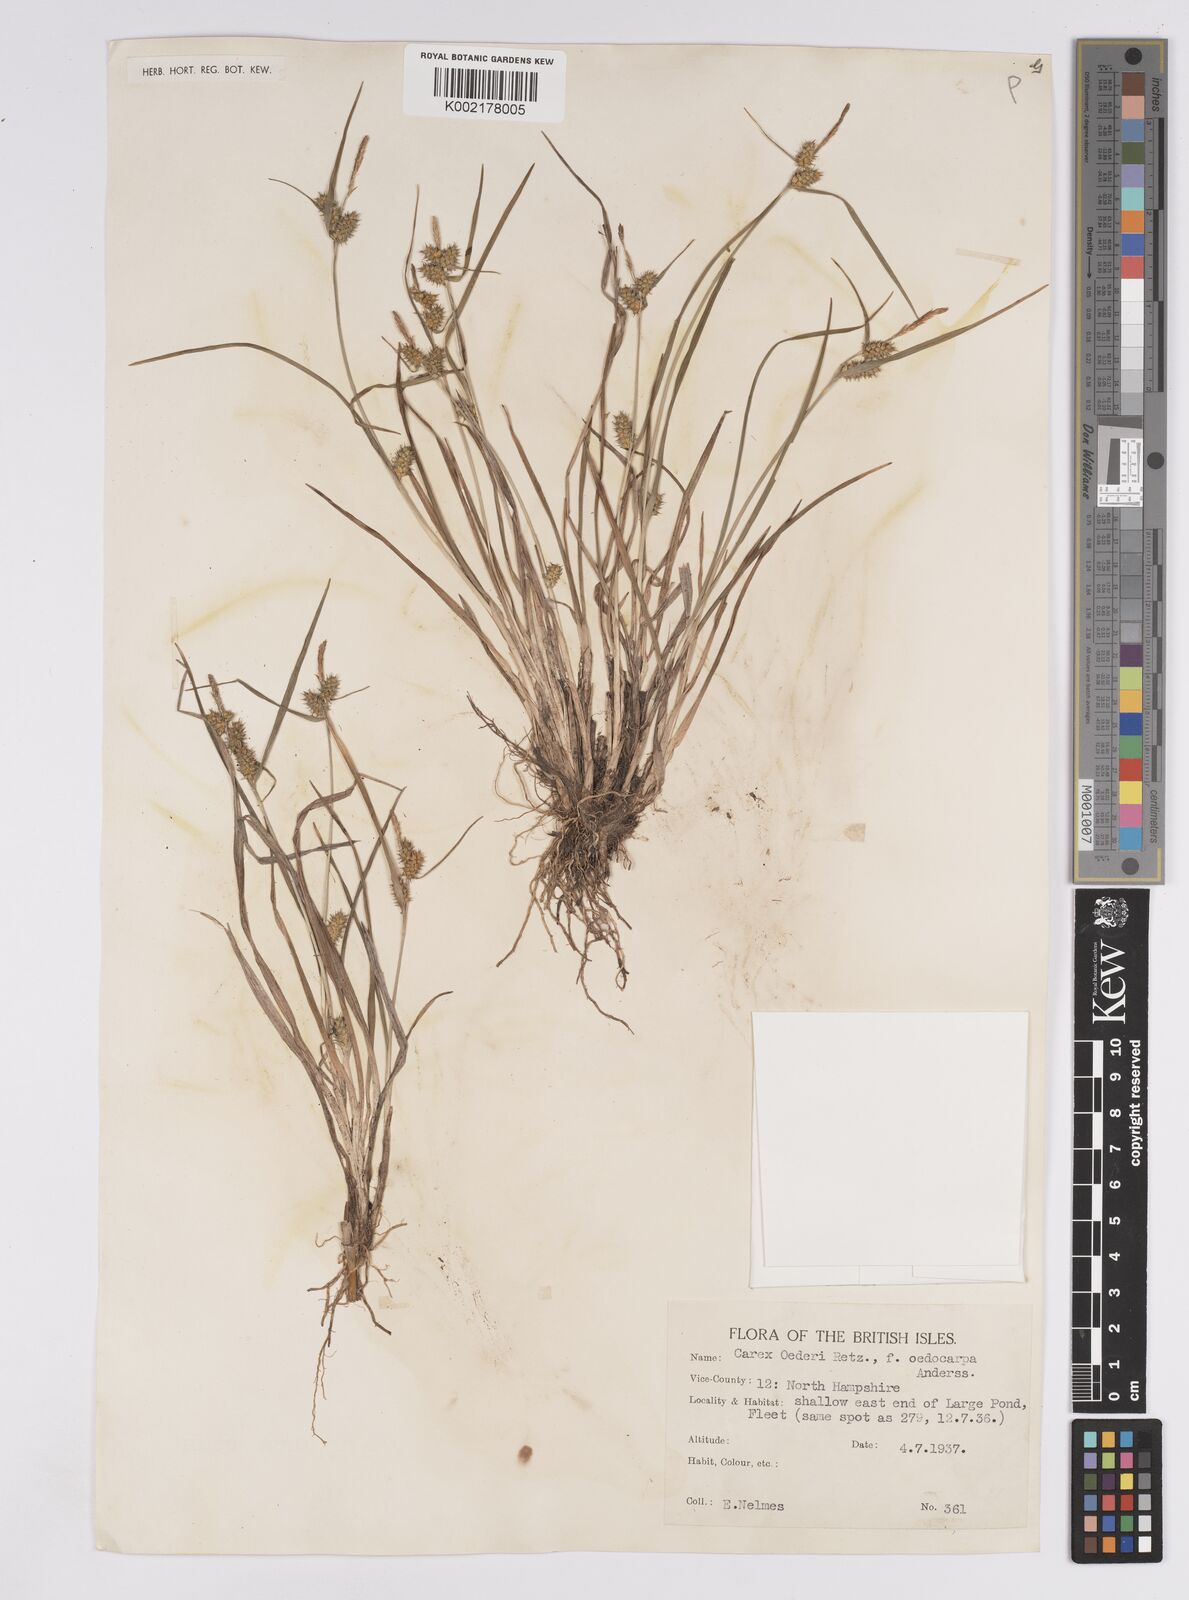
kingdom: Plantae
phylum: Tracheophyta
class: Liliopsida
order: Poales
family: Cyperaceae
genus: Carex
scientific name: Carex demissa
